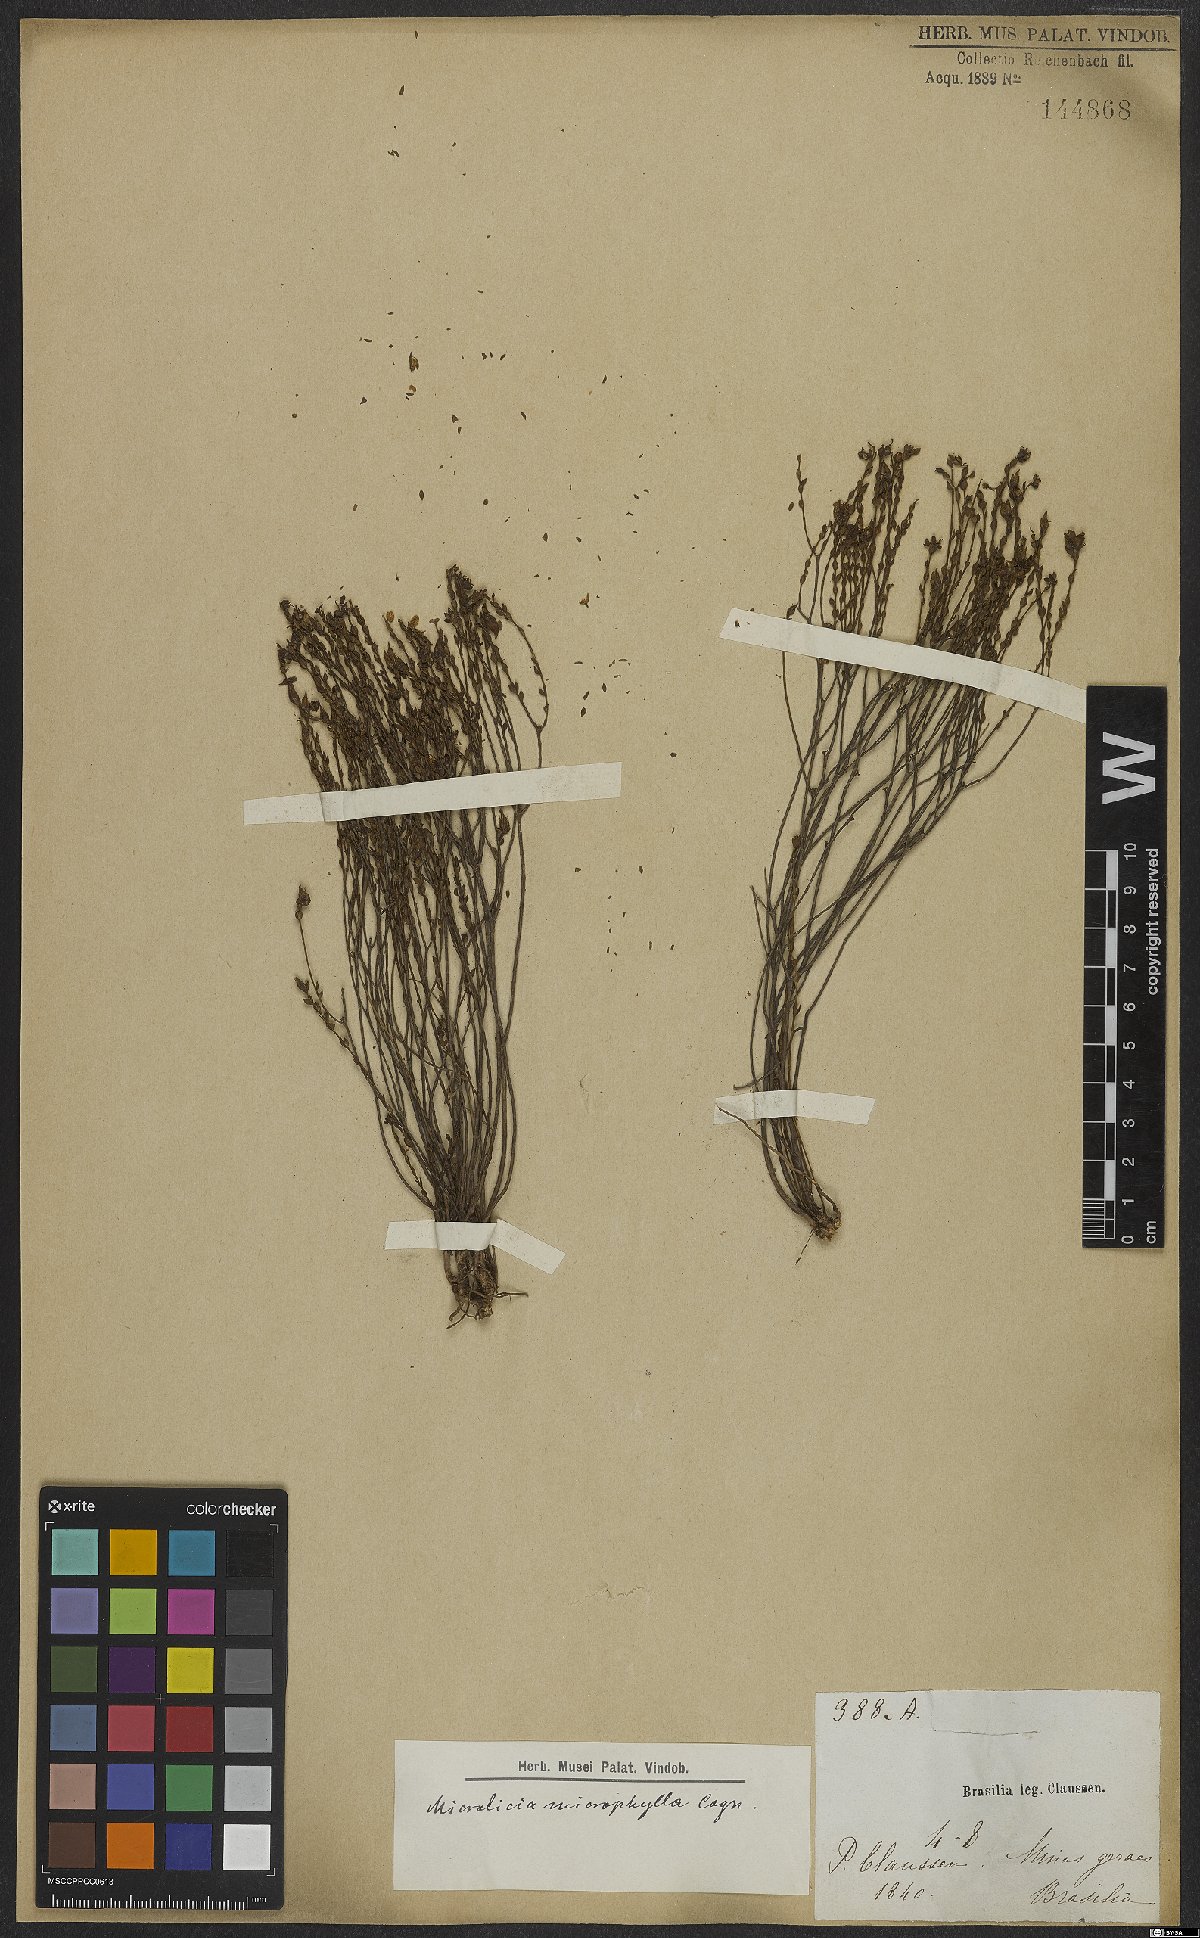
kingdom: Plantae
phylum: Tracheophyta
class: Magnoliopsida
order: Myrtales
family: Melastomataceae
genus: Microlicia
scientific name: Microlicia microphylla
